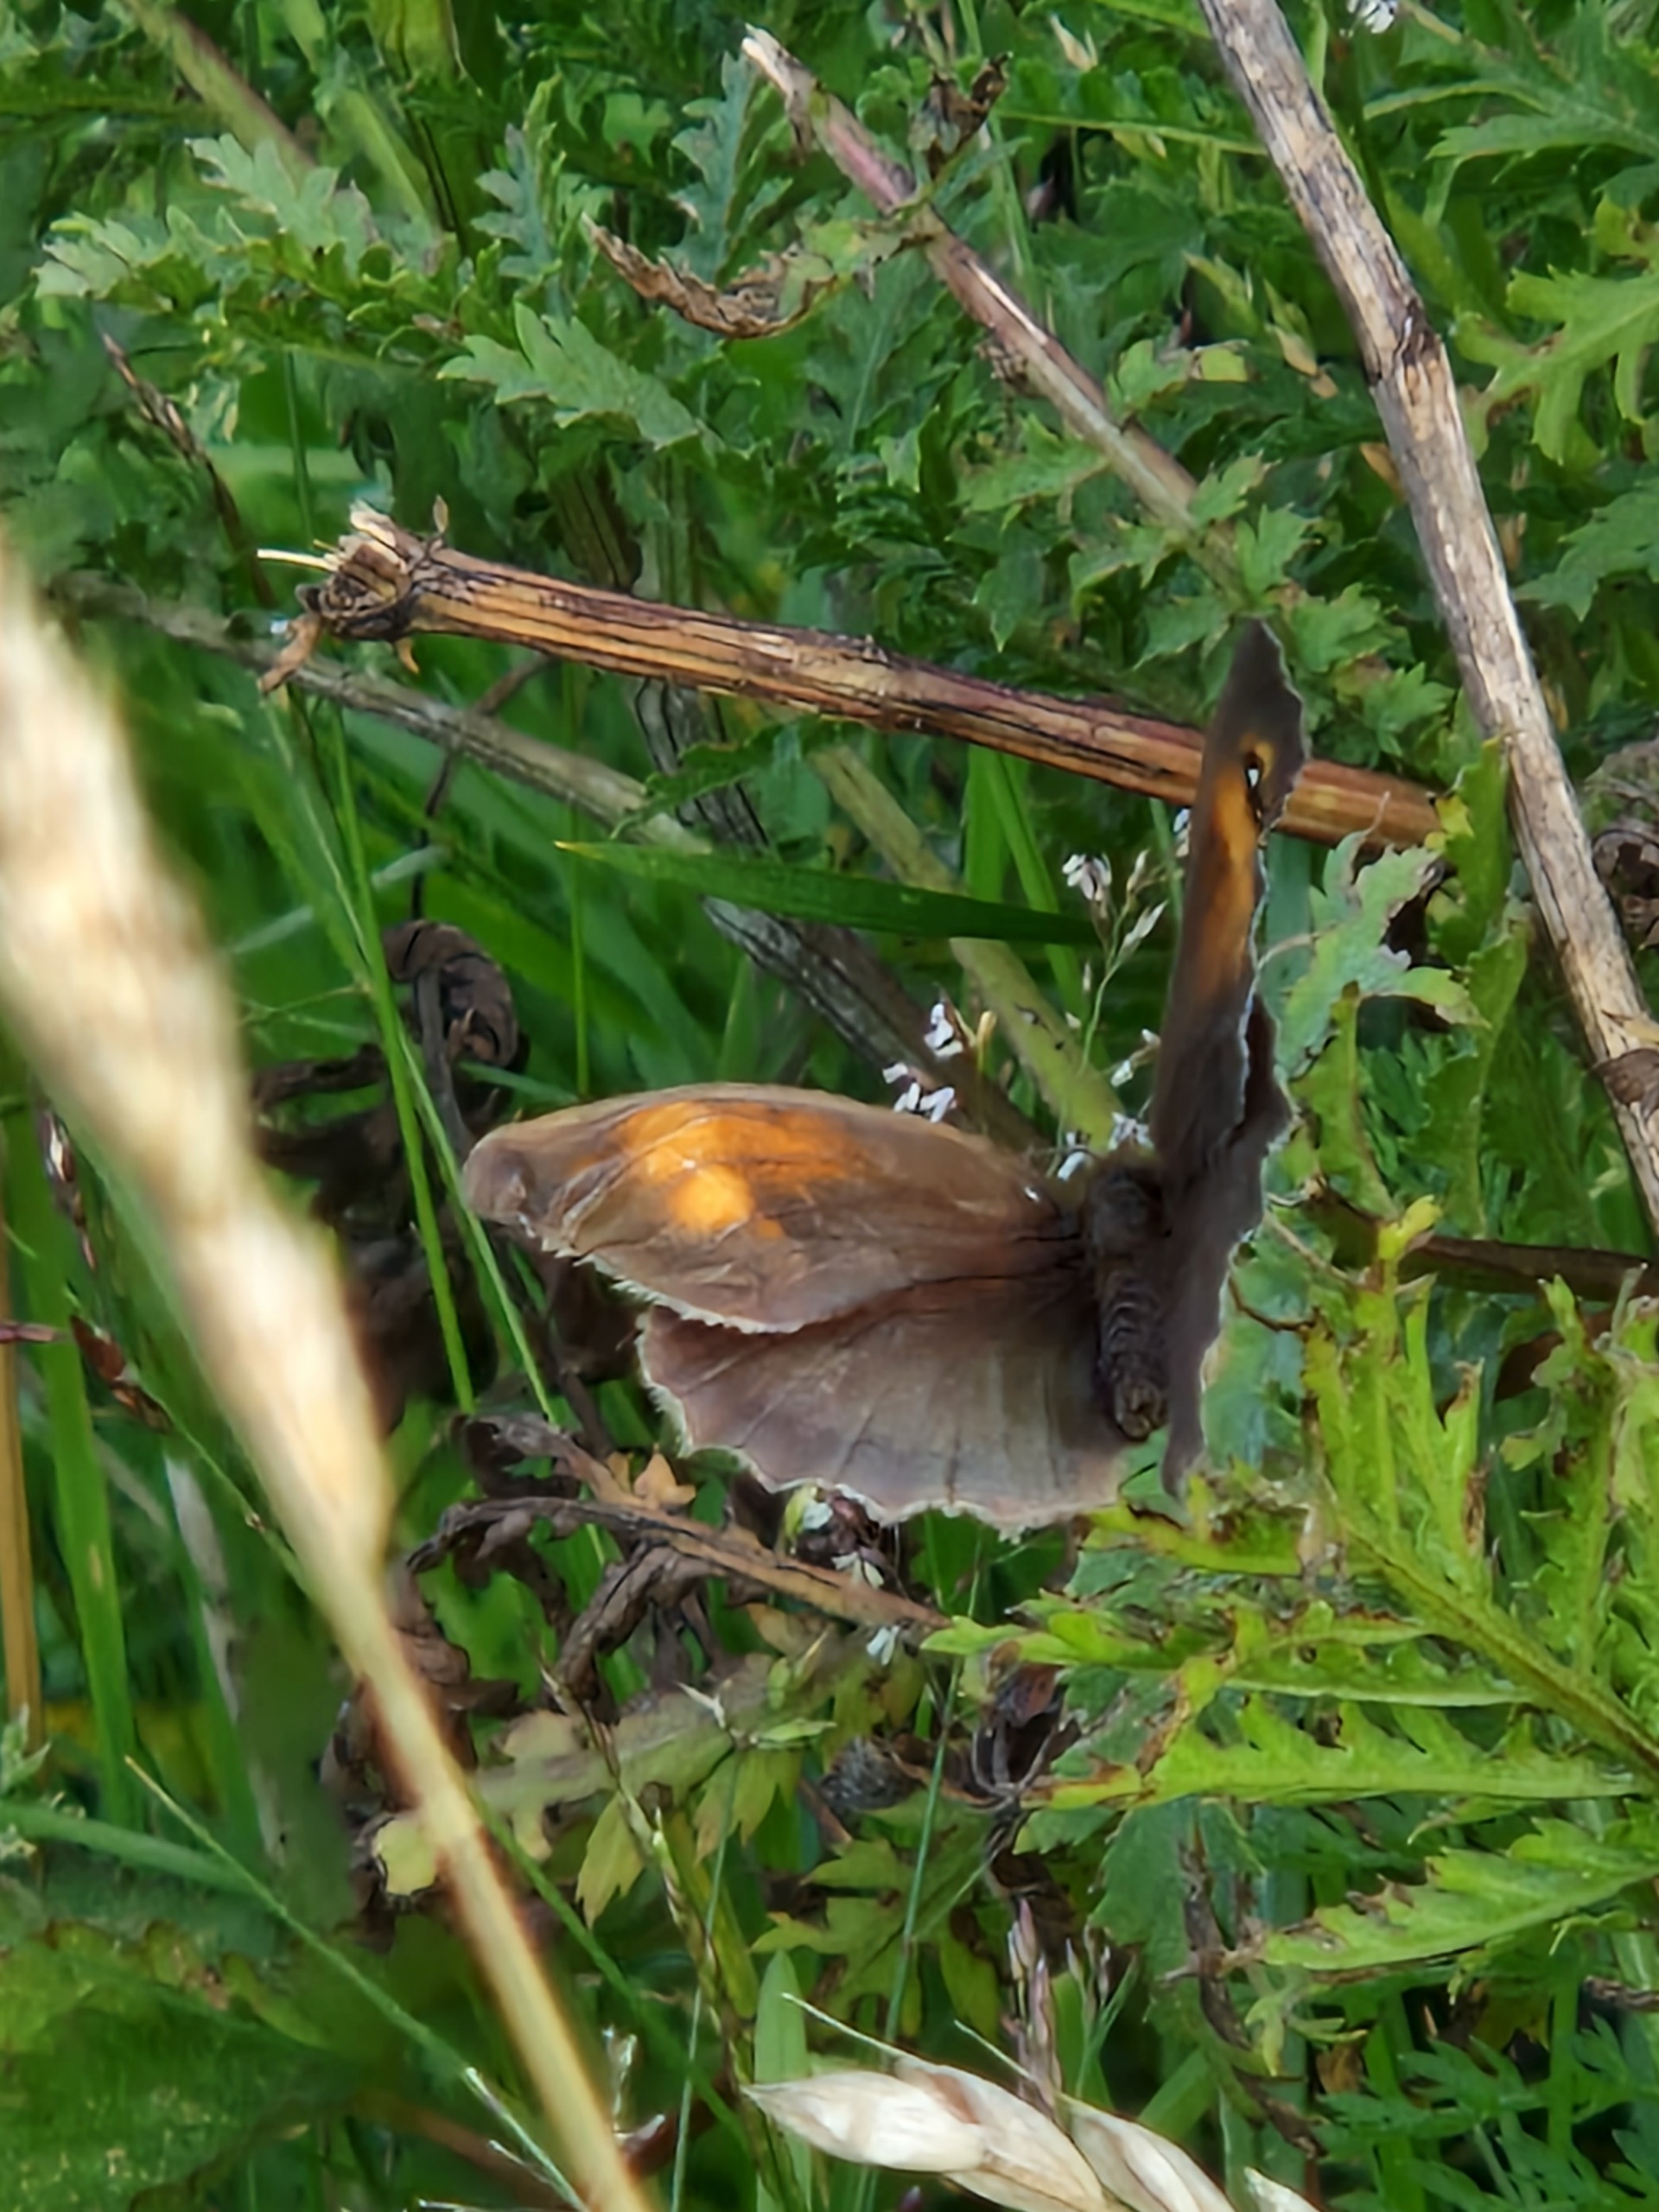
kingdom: Animalia
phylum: Arthropoda
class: Insecta
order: Lepidoptera
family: Nymphalidae
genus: Maniola
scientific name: Maniola jurtina
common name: Græsrandøje
